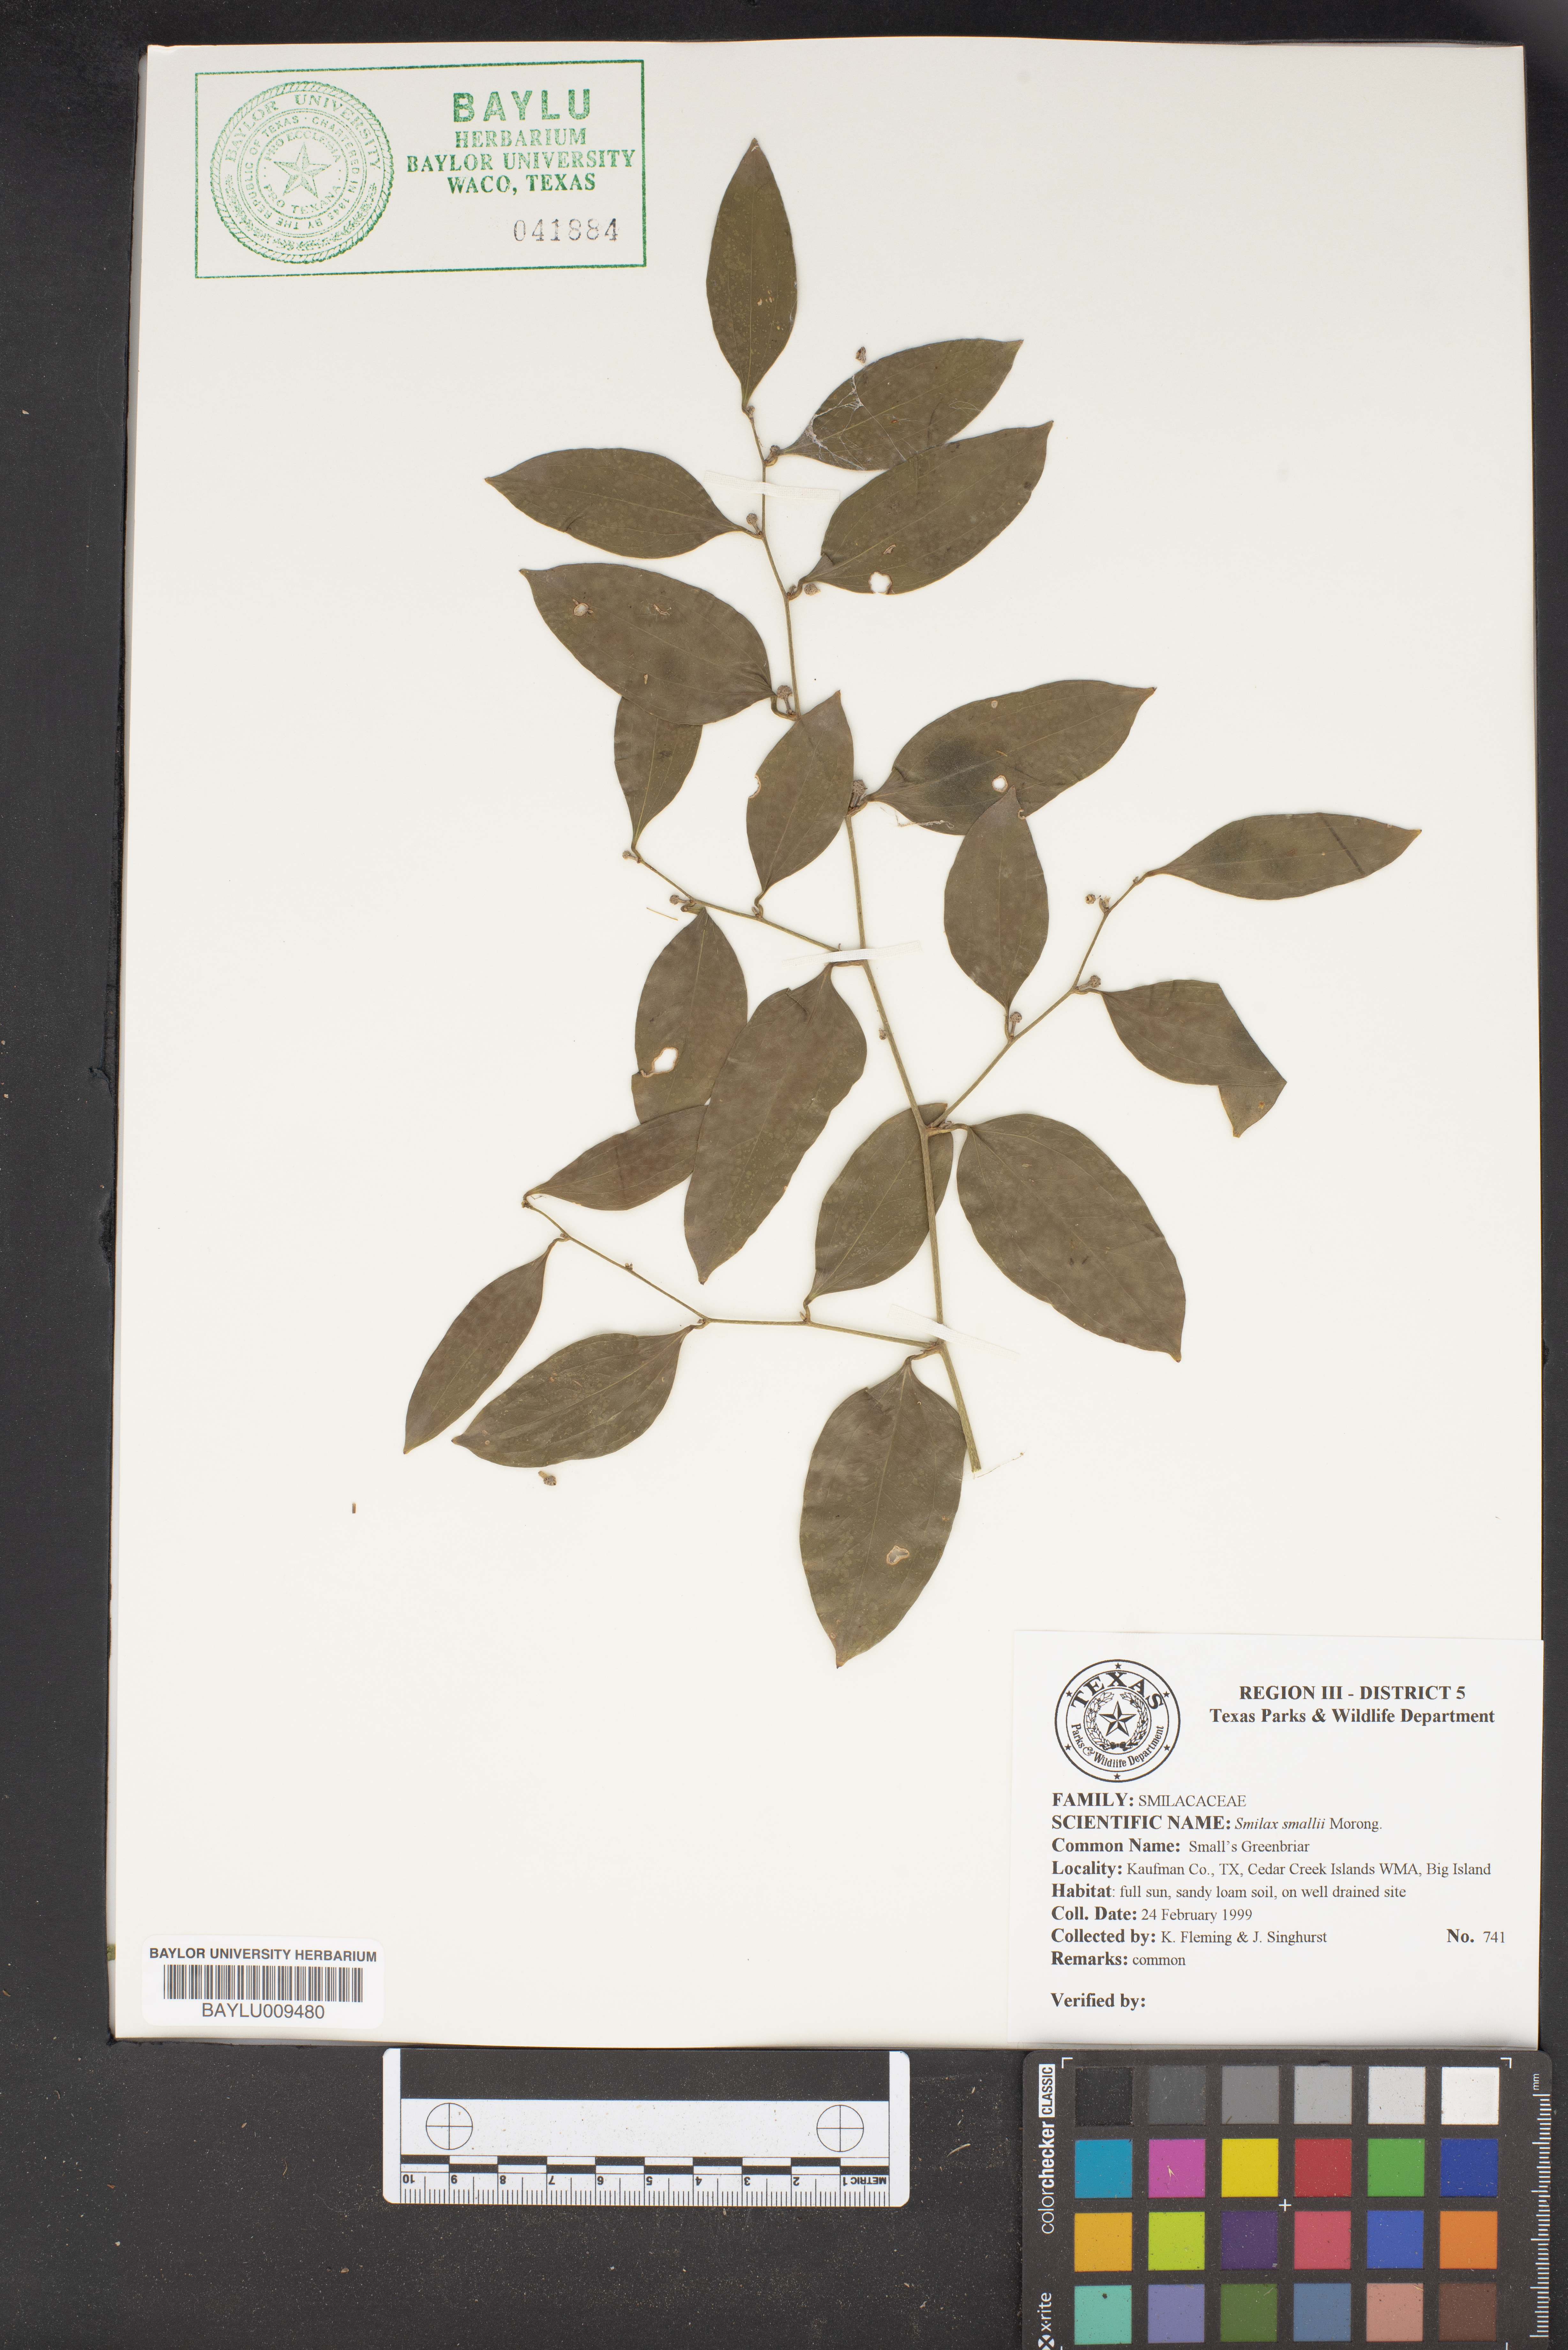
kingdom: Plantae
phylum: Tracheophyta
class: Liliopsida
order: Liliales
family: Smilacaceae
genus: Smilax
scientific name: Smilax maritima
